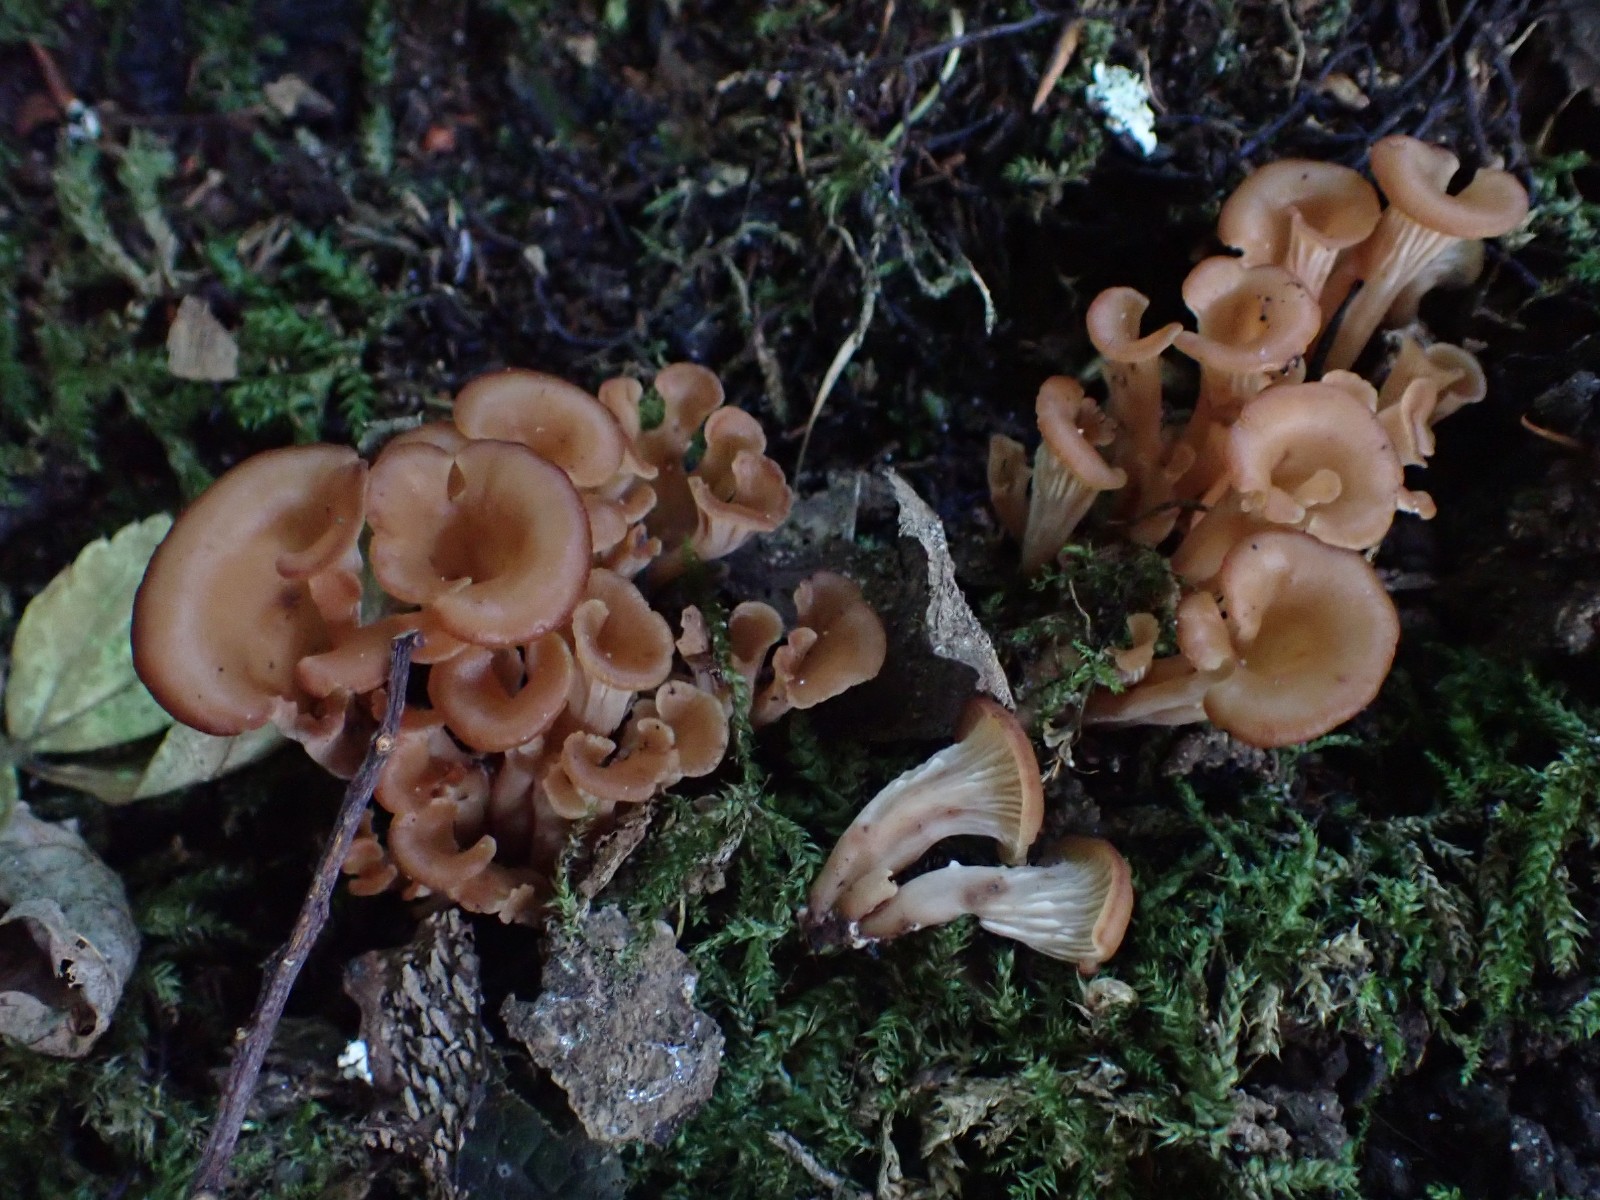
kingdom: Fungi
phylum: Basidiomycota
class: Agaricomycetes
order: Russulales
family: Auriscalpiaceae
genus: Lentinellus
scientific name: Lentinellus cochleatus
